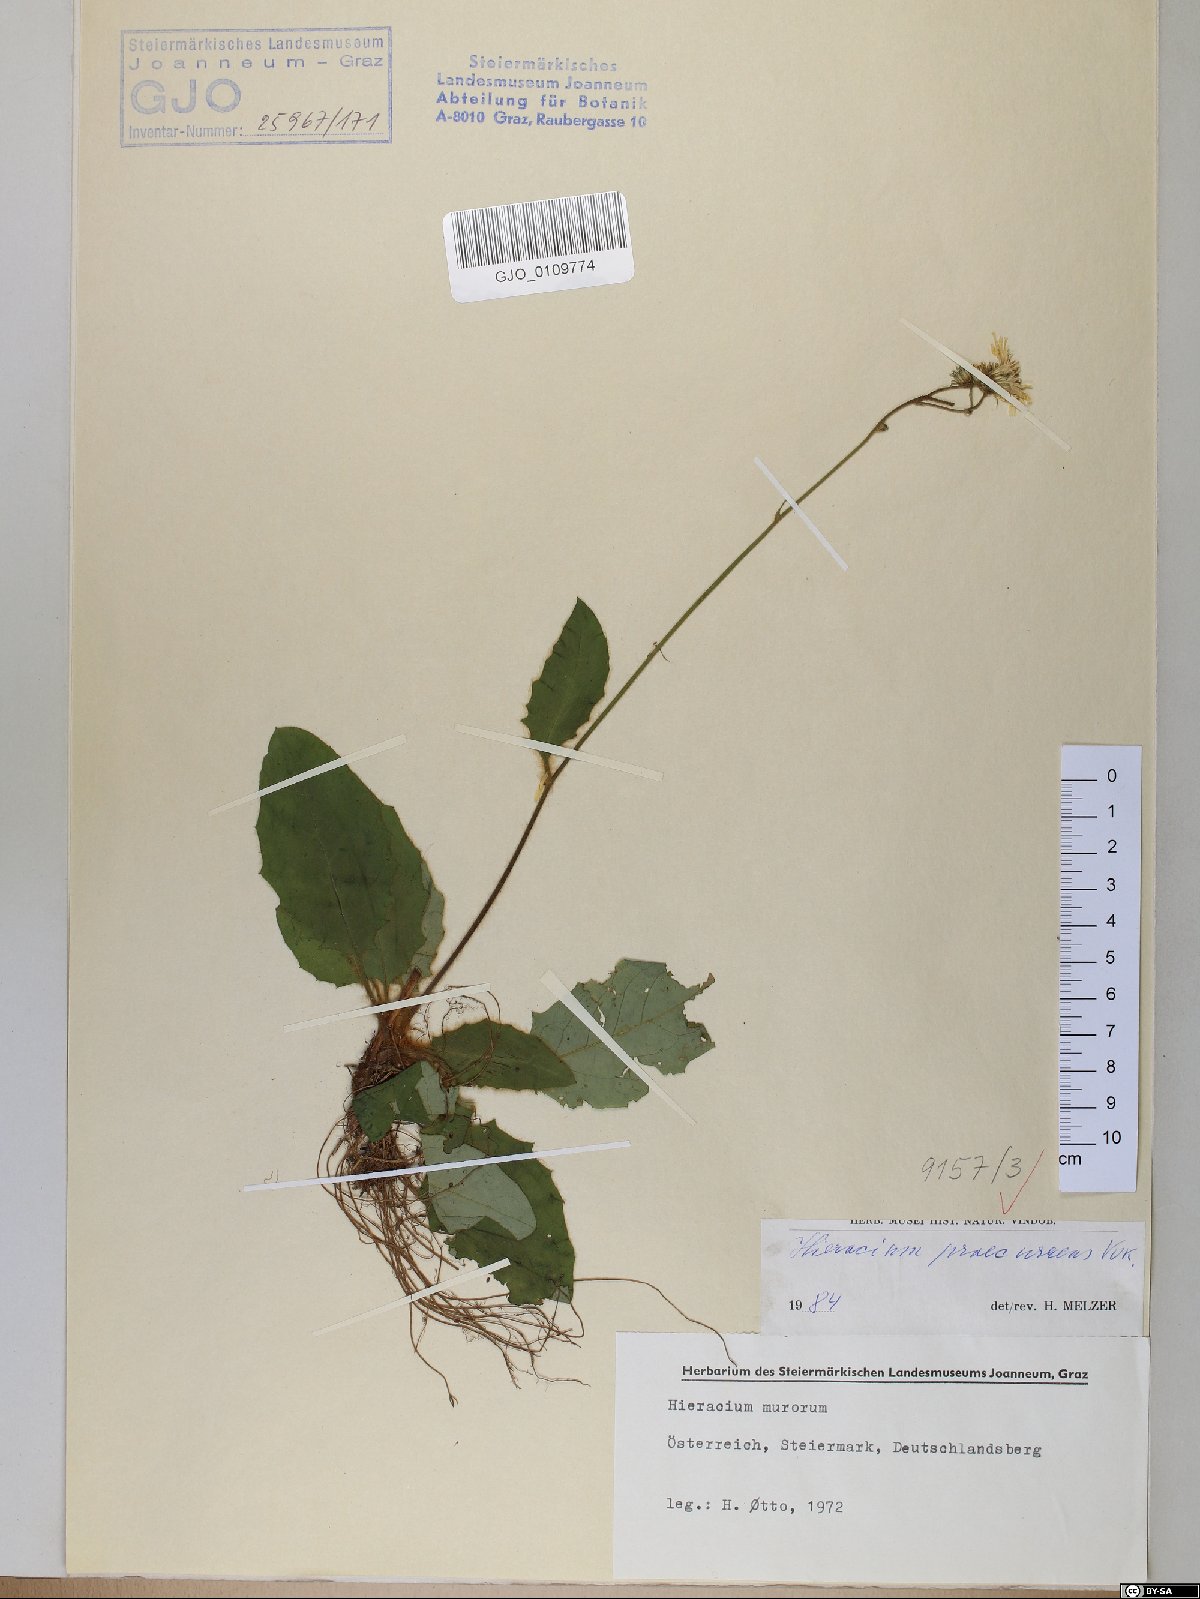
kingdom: Plantae
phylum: Tracheophyta
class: Magnoliopsida
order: Asterales
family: Asteraceae
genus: Hieracium
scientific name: Hieracium rotundatum
